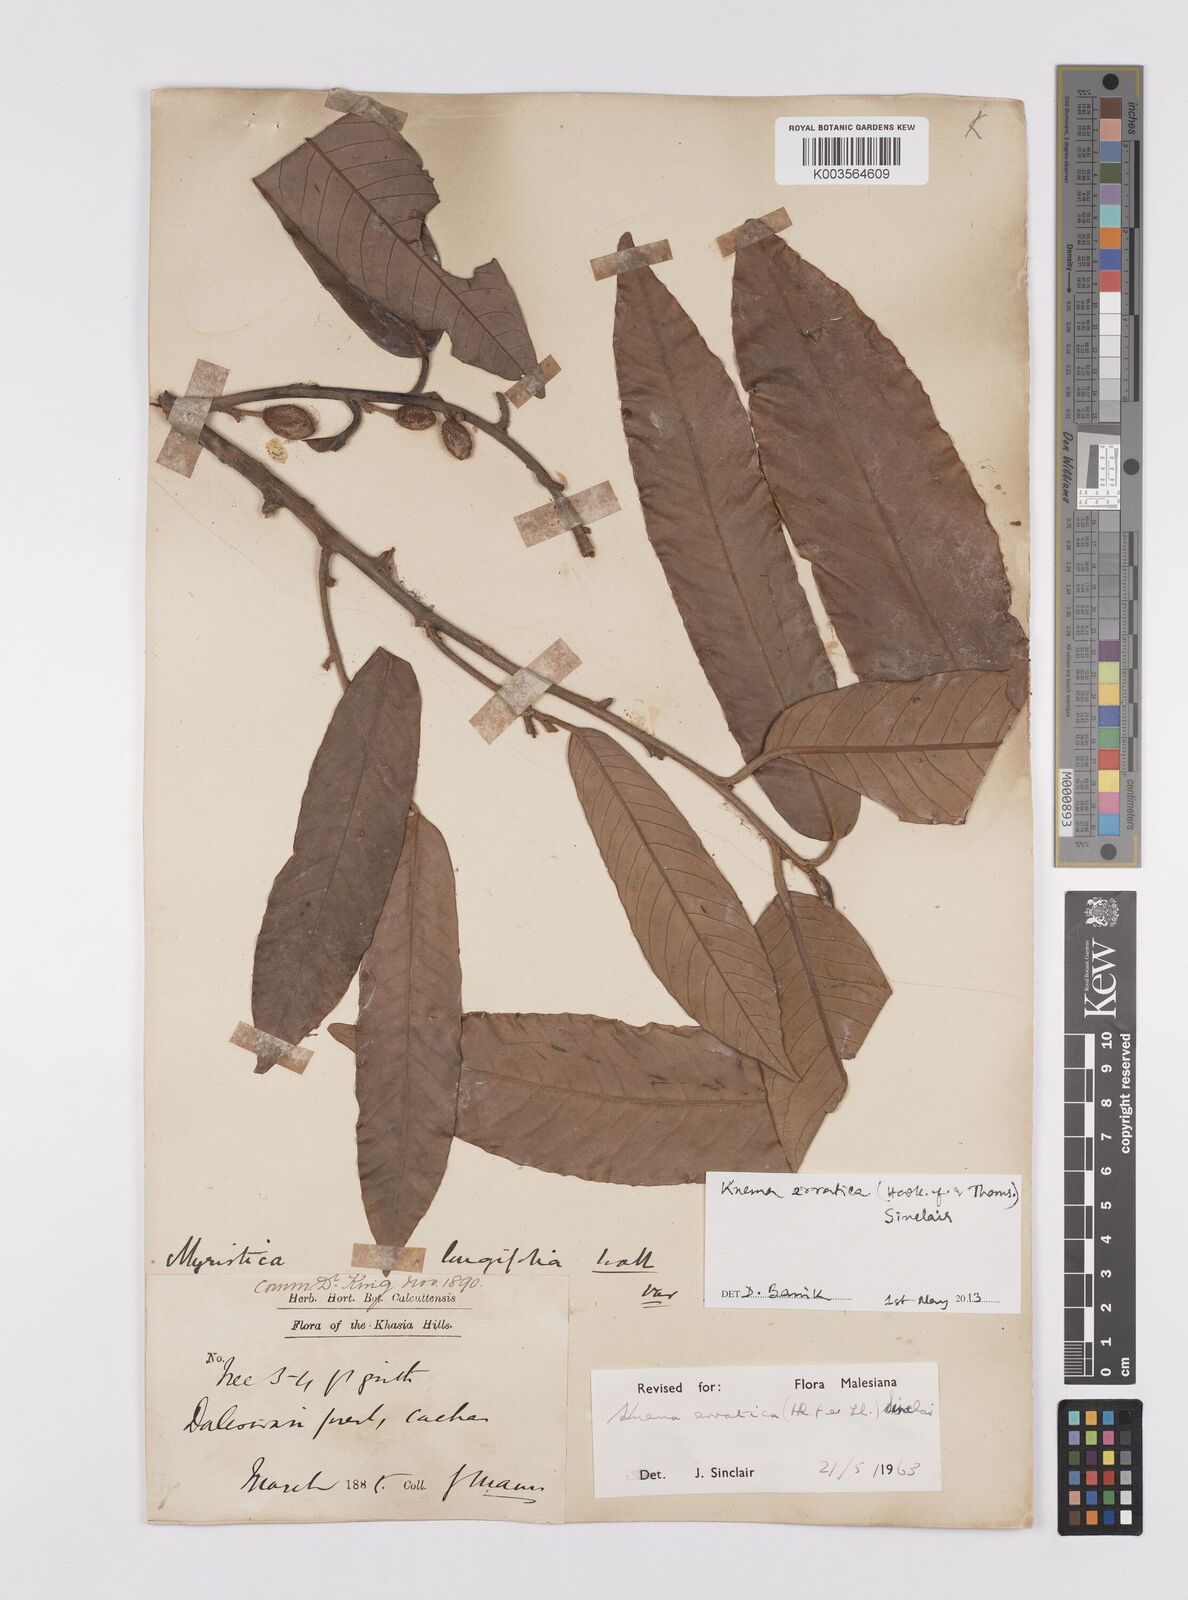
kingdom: Plantae
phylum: Tracheophyta
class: Magnoliopsida
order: Magnoliales
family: Myristicaceae
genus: Knema
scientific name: Knema erratica
